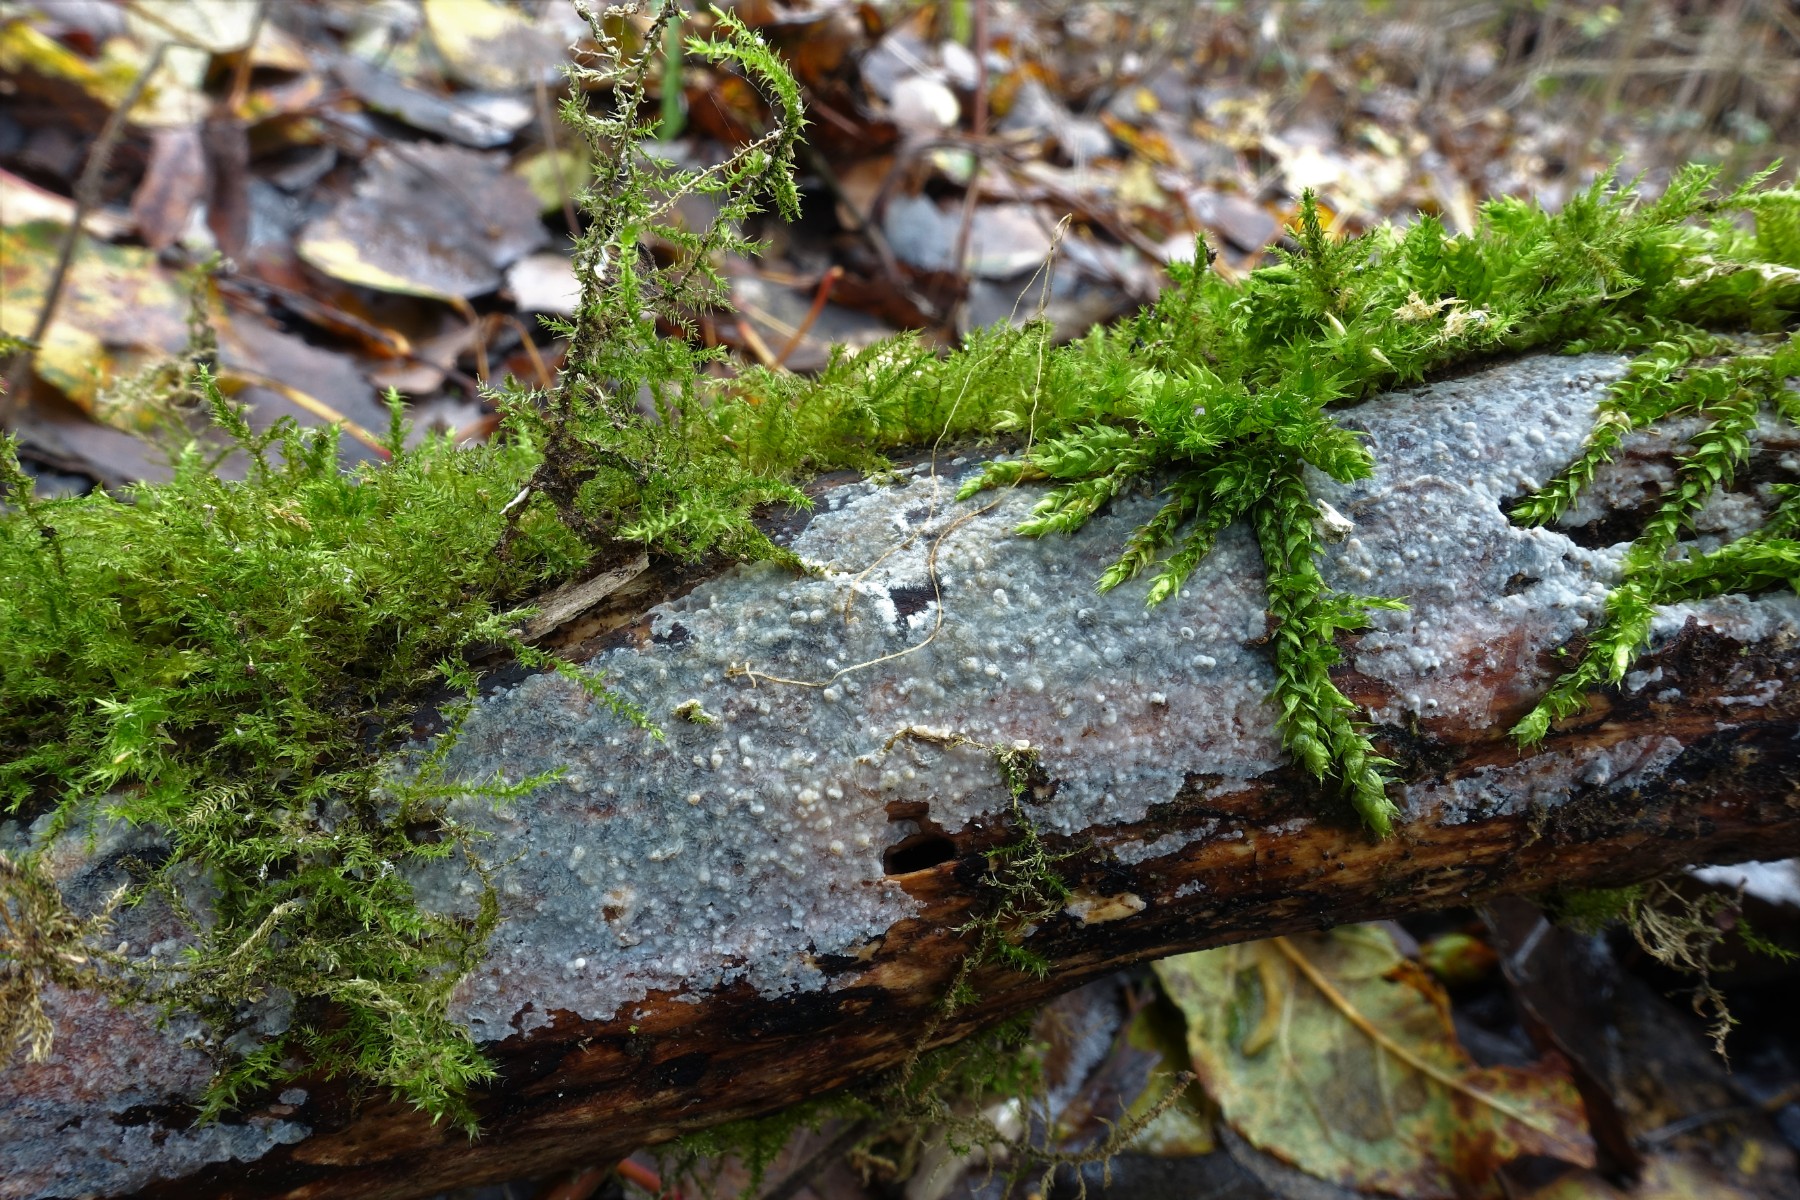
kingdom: Fungi
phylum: Basidiomycota
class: Agaricomycetes
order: Agaricales
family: Radulomycetaceae
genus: Radulomyces
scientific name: Radulomyces confluens
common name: glat naftalinskind
